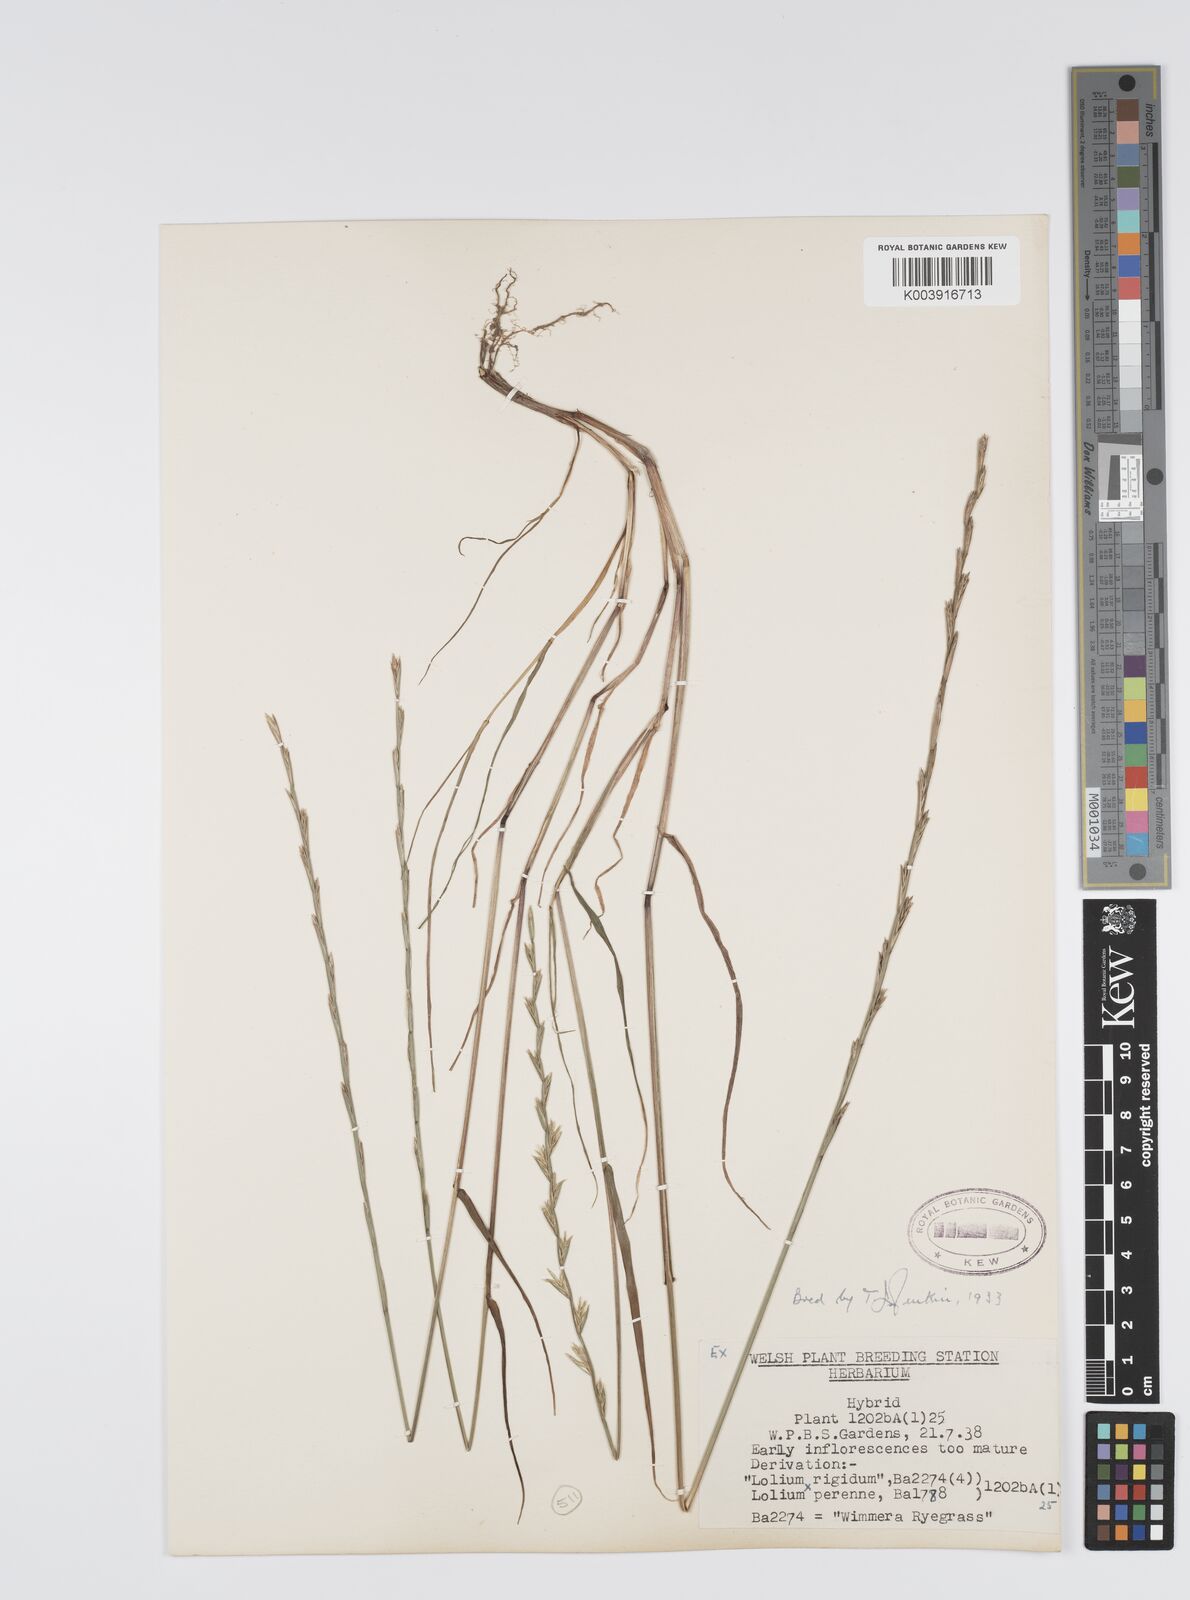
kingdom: Plantae
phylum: Tracheophyta
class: Liliopsida
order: Poales
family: Poaceae
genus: Lolium
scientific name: Lolium perenne
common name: Perennial ryegrass
